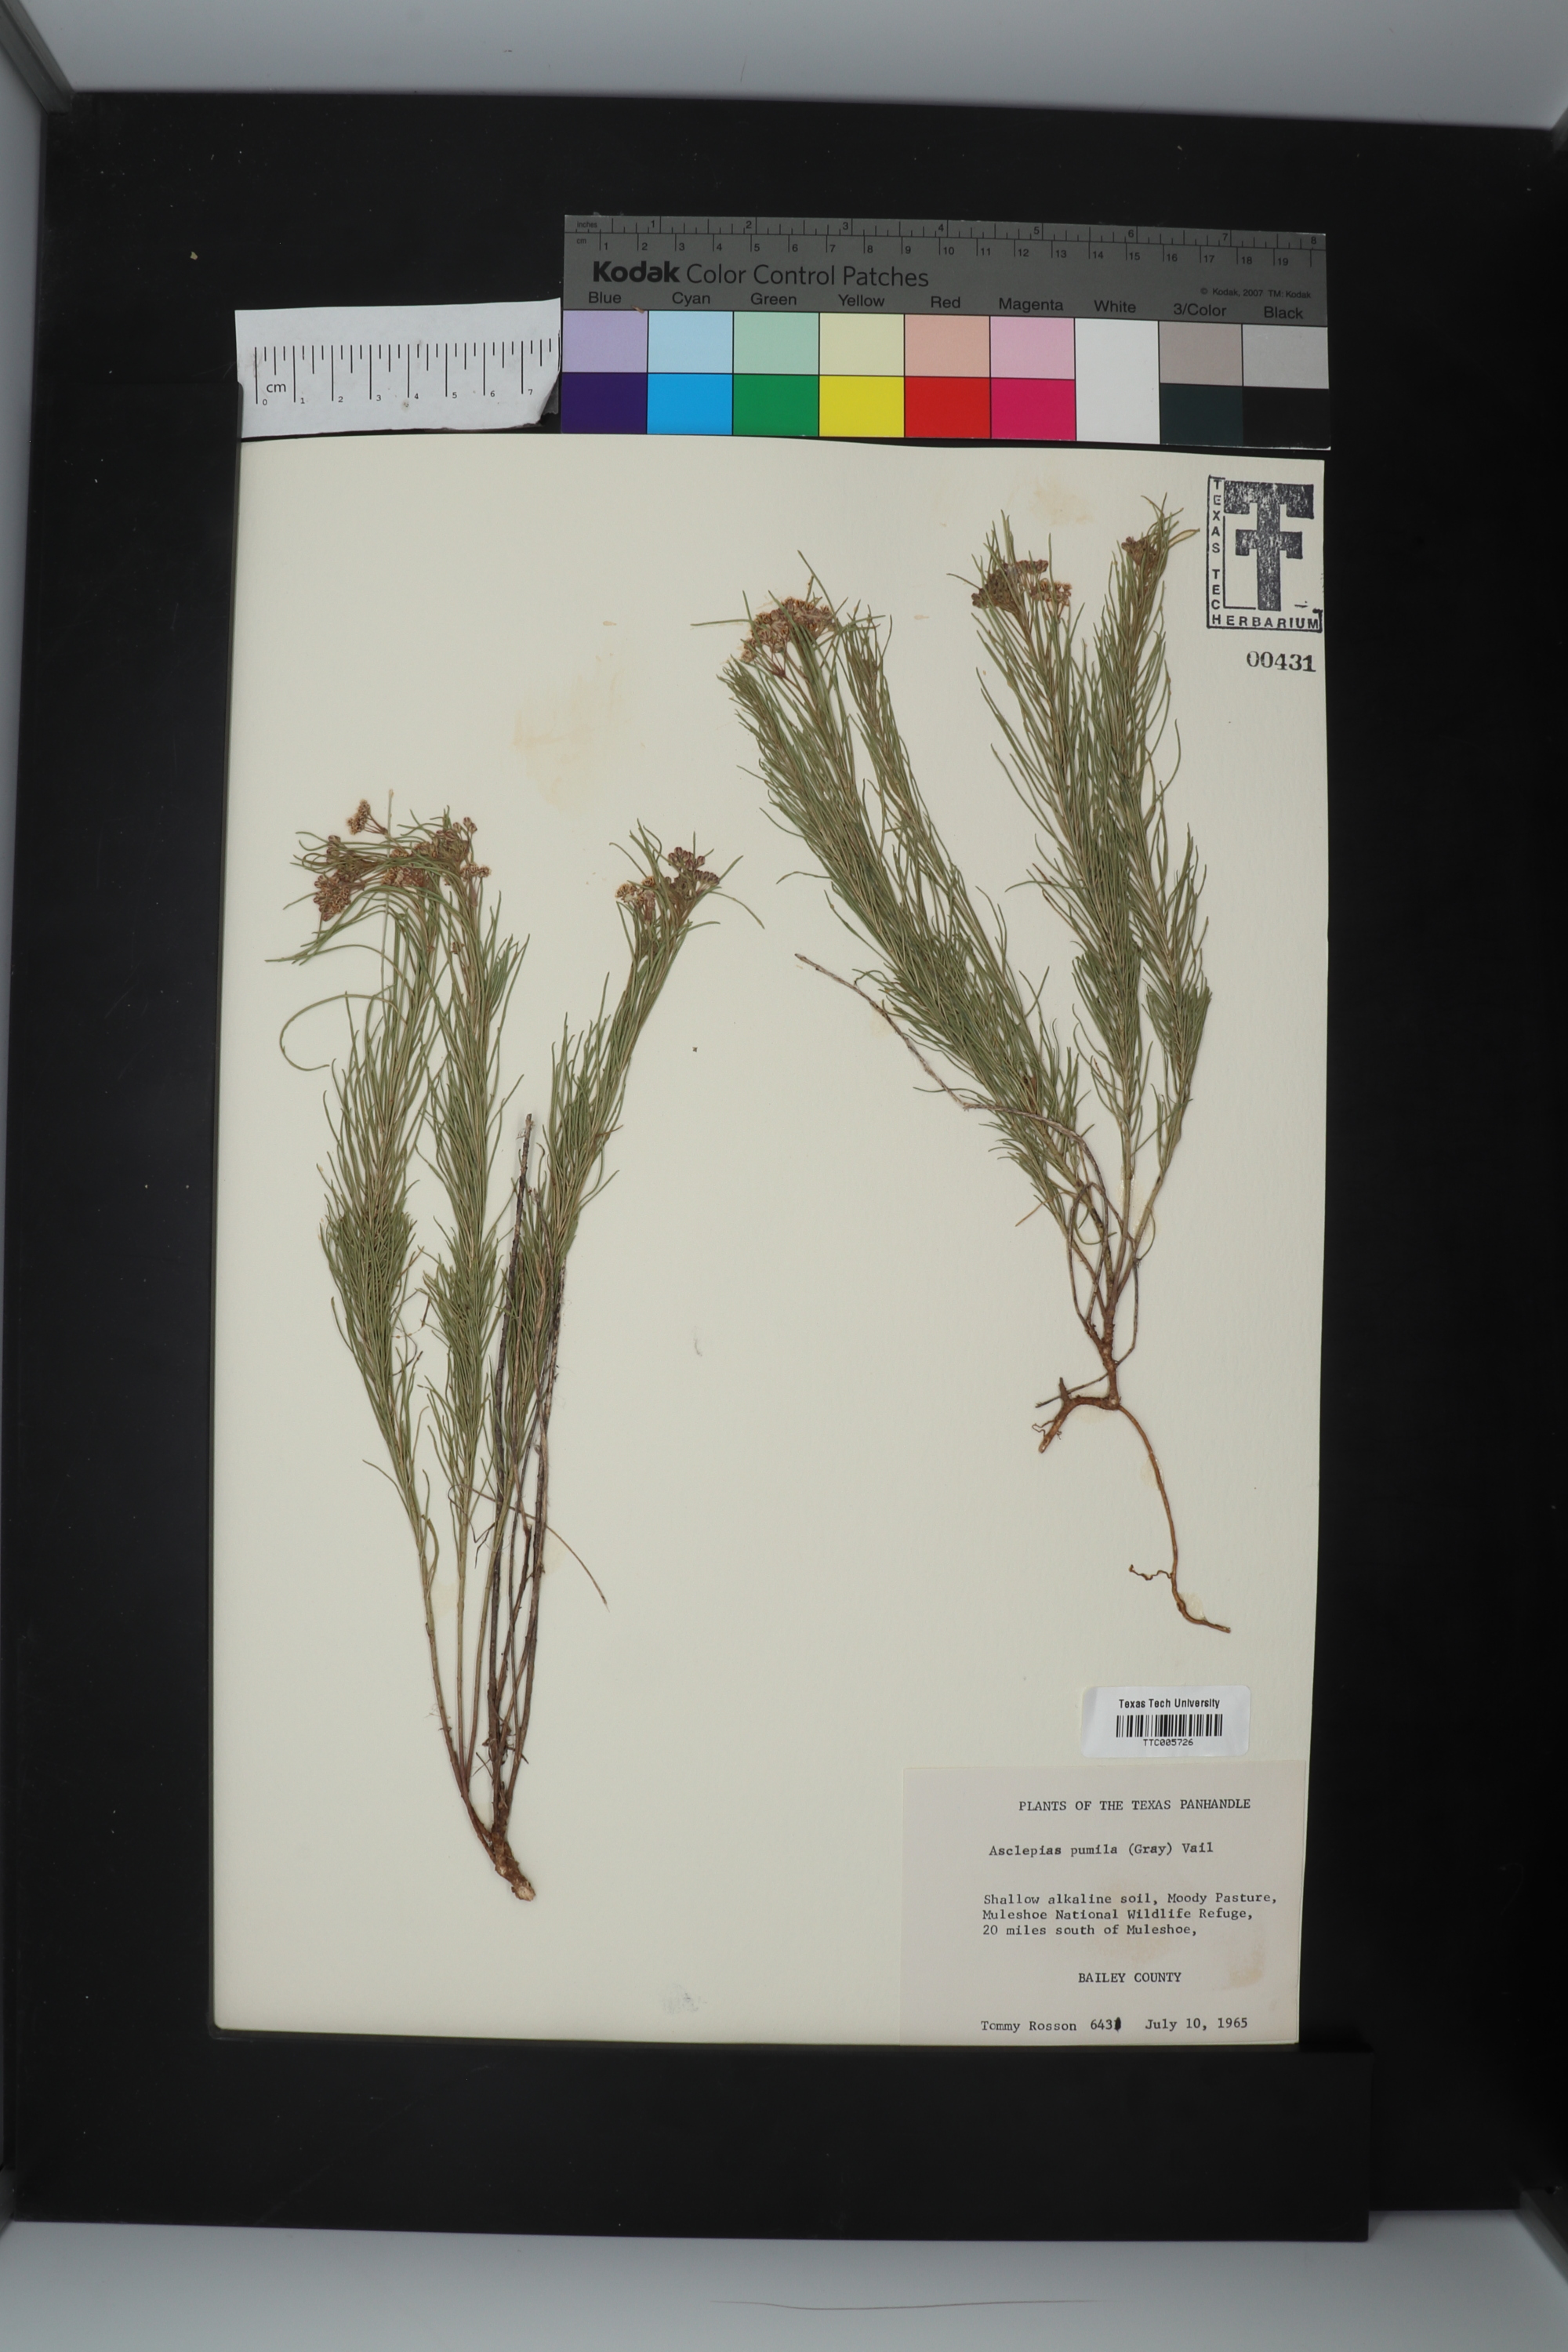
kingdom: Plantae
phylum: Tracheophyta
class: Magnoliopsida
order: Gentianales
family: Apocynaceae
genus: Asclepias
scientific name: Asclepias pumila
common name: Dwarf milkweed
